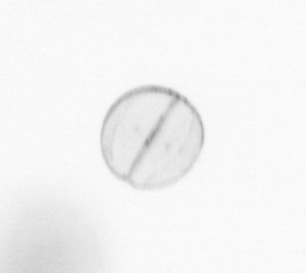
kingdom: Chromista
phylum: Ochrophyta
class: Bacillariophyceae
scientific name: Bacillariophyceae
